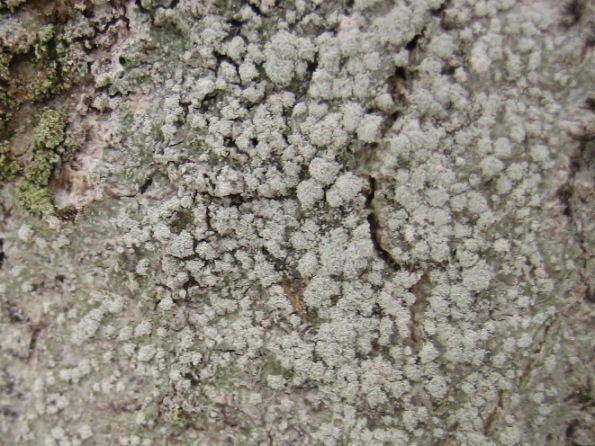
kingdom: Fungi
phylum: Ascomycota
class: Lecanoromycetes
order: Pertusariales
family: Pertusariaceae
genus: Lepra
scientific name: Lepra amara
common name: bitter prikvortelav
